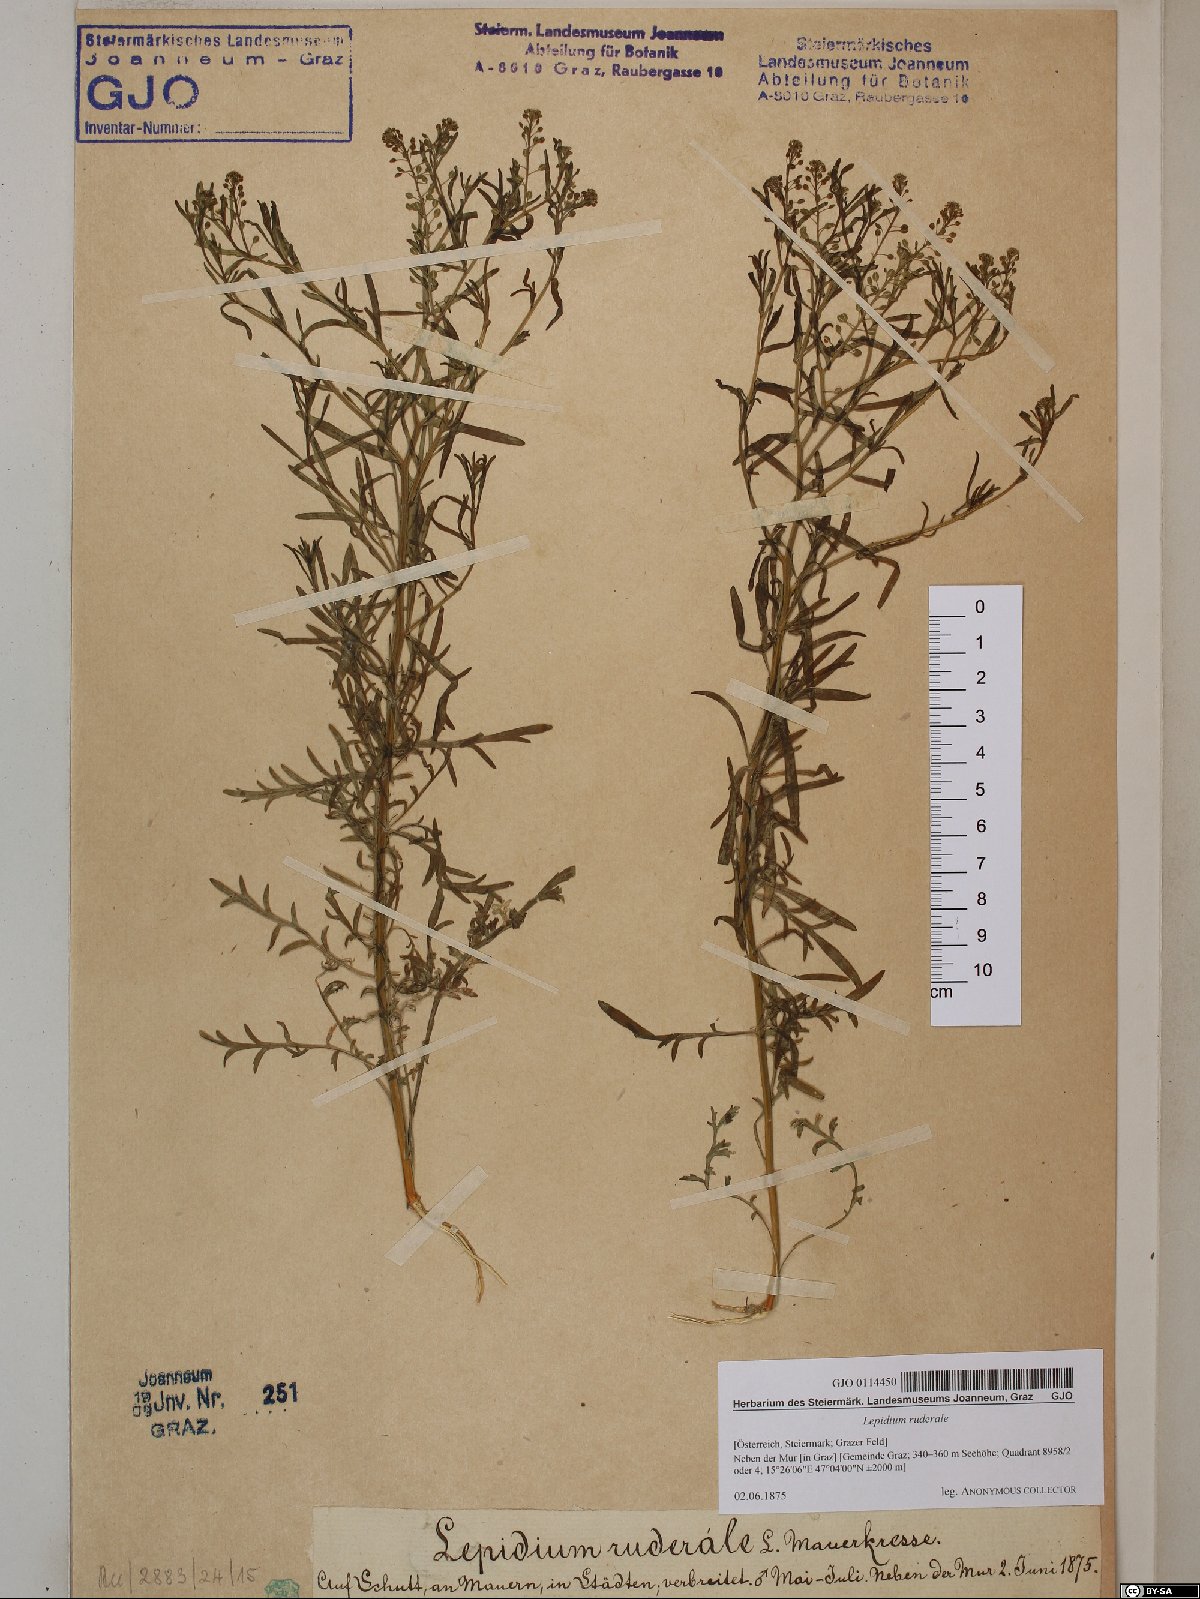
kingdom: Plantae
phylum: Tracheophyta
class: Magnoliopsida
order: Brassicales
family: Brassicaceae
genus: Lepidium
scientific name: Lepidium ruderale
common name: Narrow-leaved pepperwort
